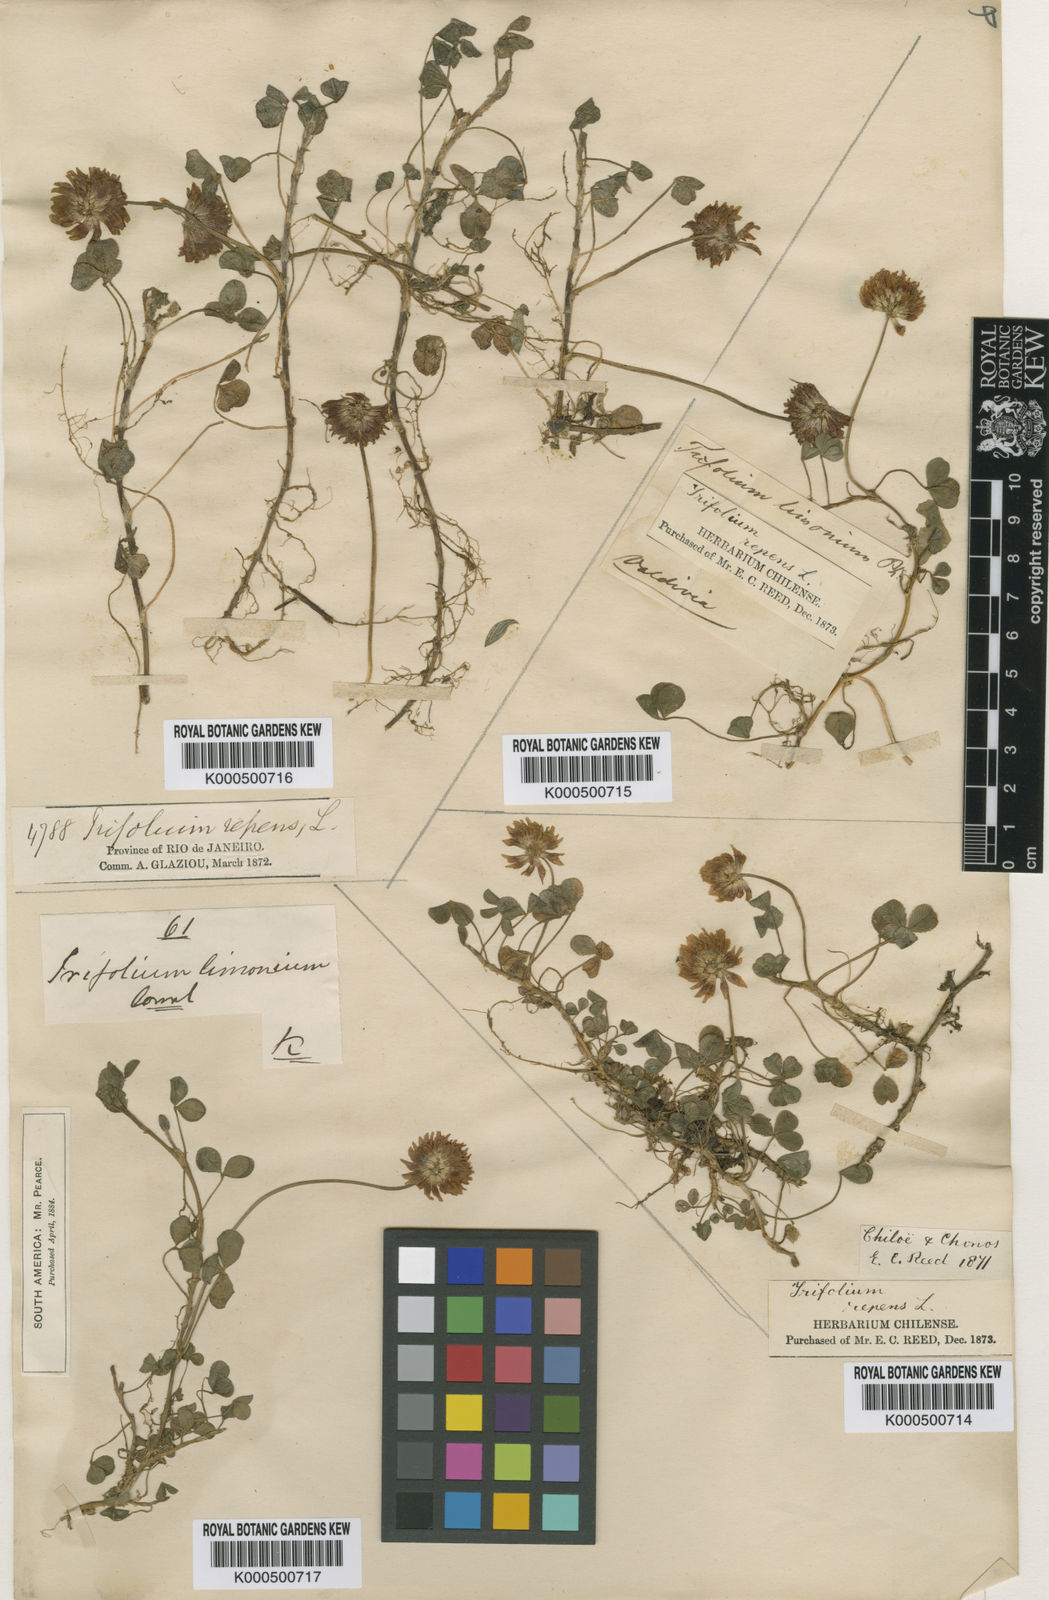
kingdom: Plantae
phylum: Tracheophyta
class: Magnoliopsida
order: Fabales
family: Fabaceae
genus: Trifolium
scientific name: Trifolium repens
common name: White clover
